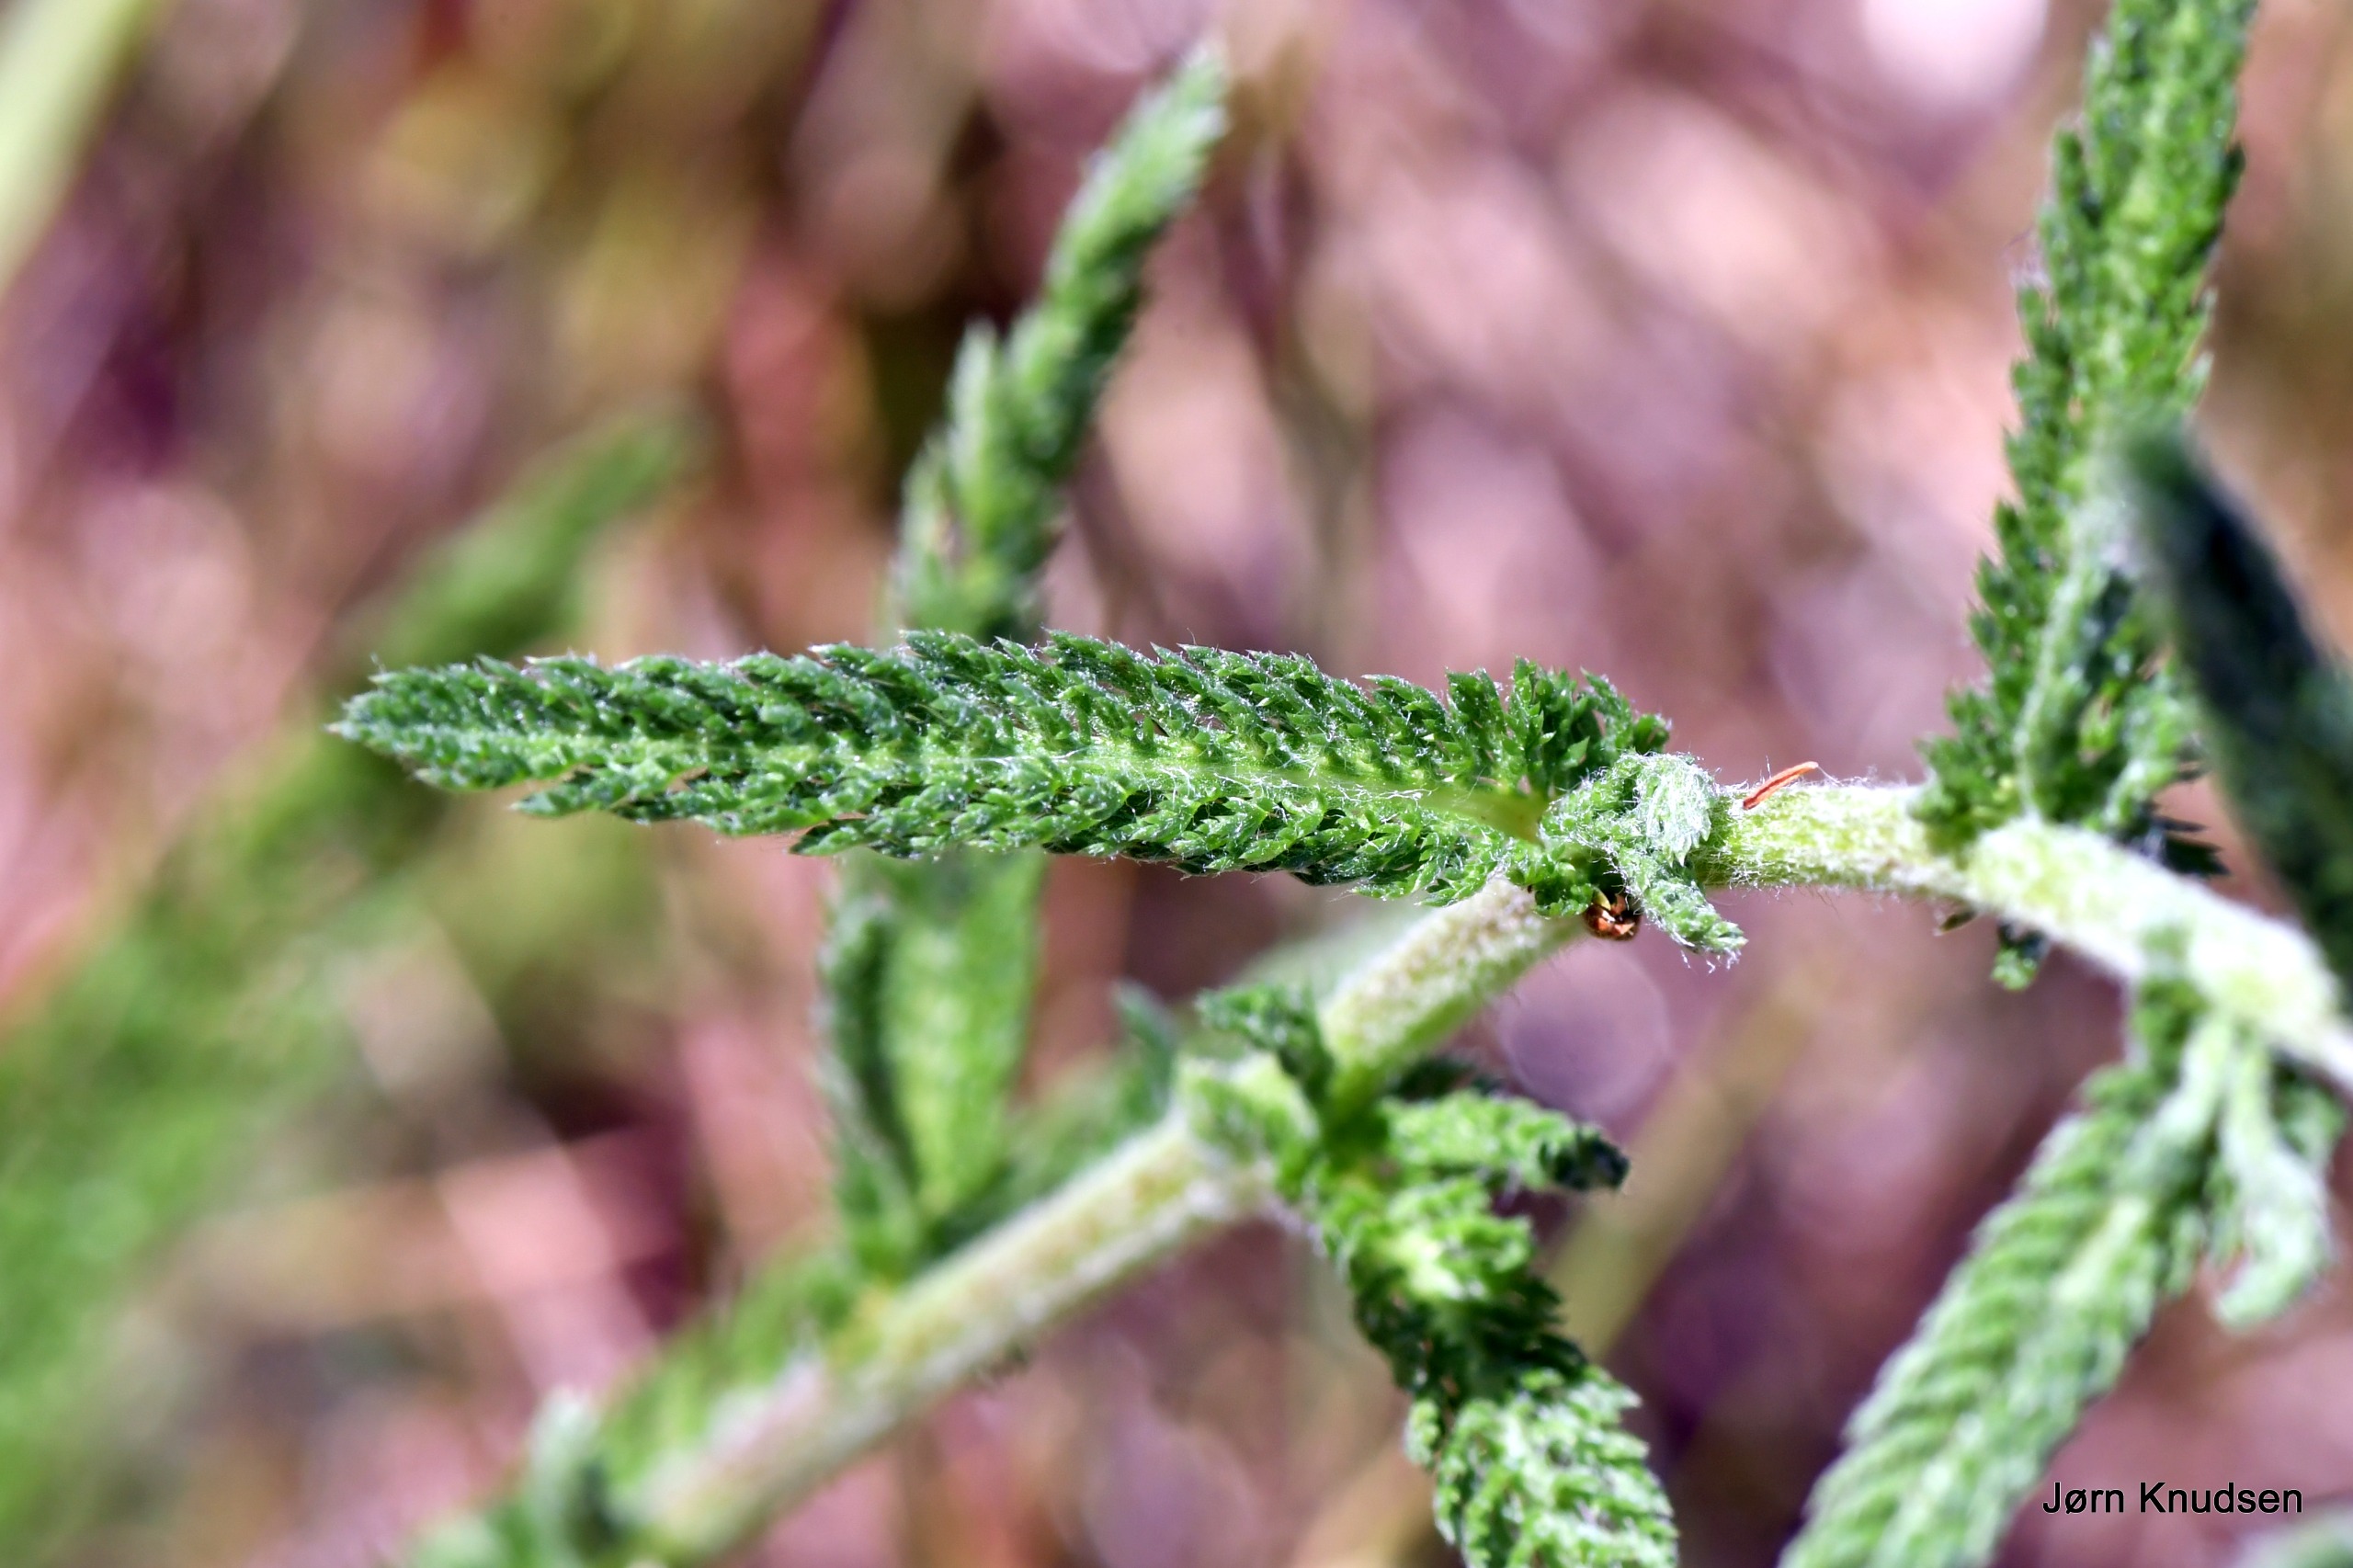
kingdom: Plantae
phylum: Tracheophyta
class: Magnoliopsida
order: Asterales
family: Asteraceae
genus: Achillea
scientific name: Achillea millefolium
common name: Almindelig røllike
